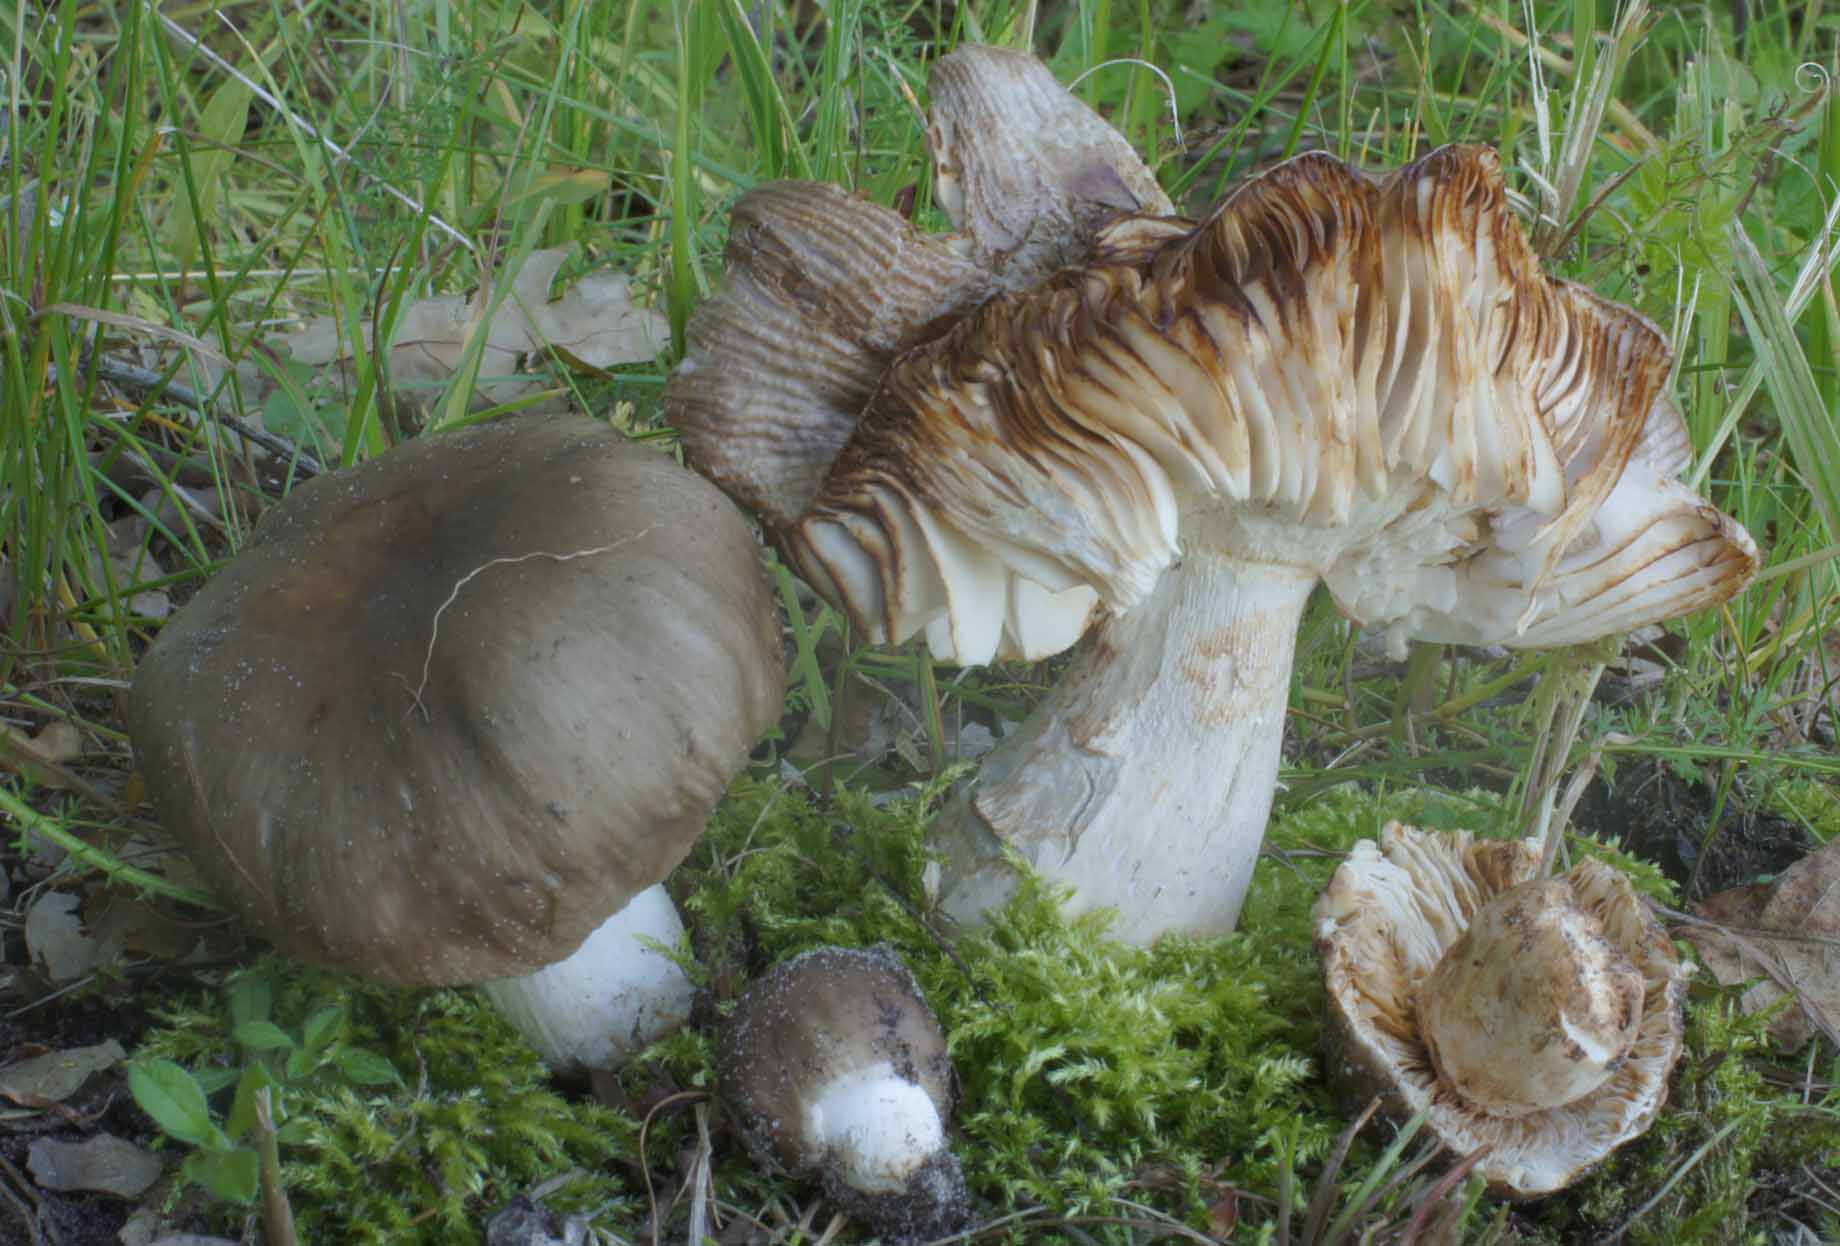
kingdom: Fungi
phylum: Basidiomycota
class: Agaricomycetes
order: Russulales
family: Russulaceae
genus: Russula
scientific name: Russula amoenolens
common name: skarp kam-skørhat
